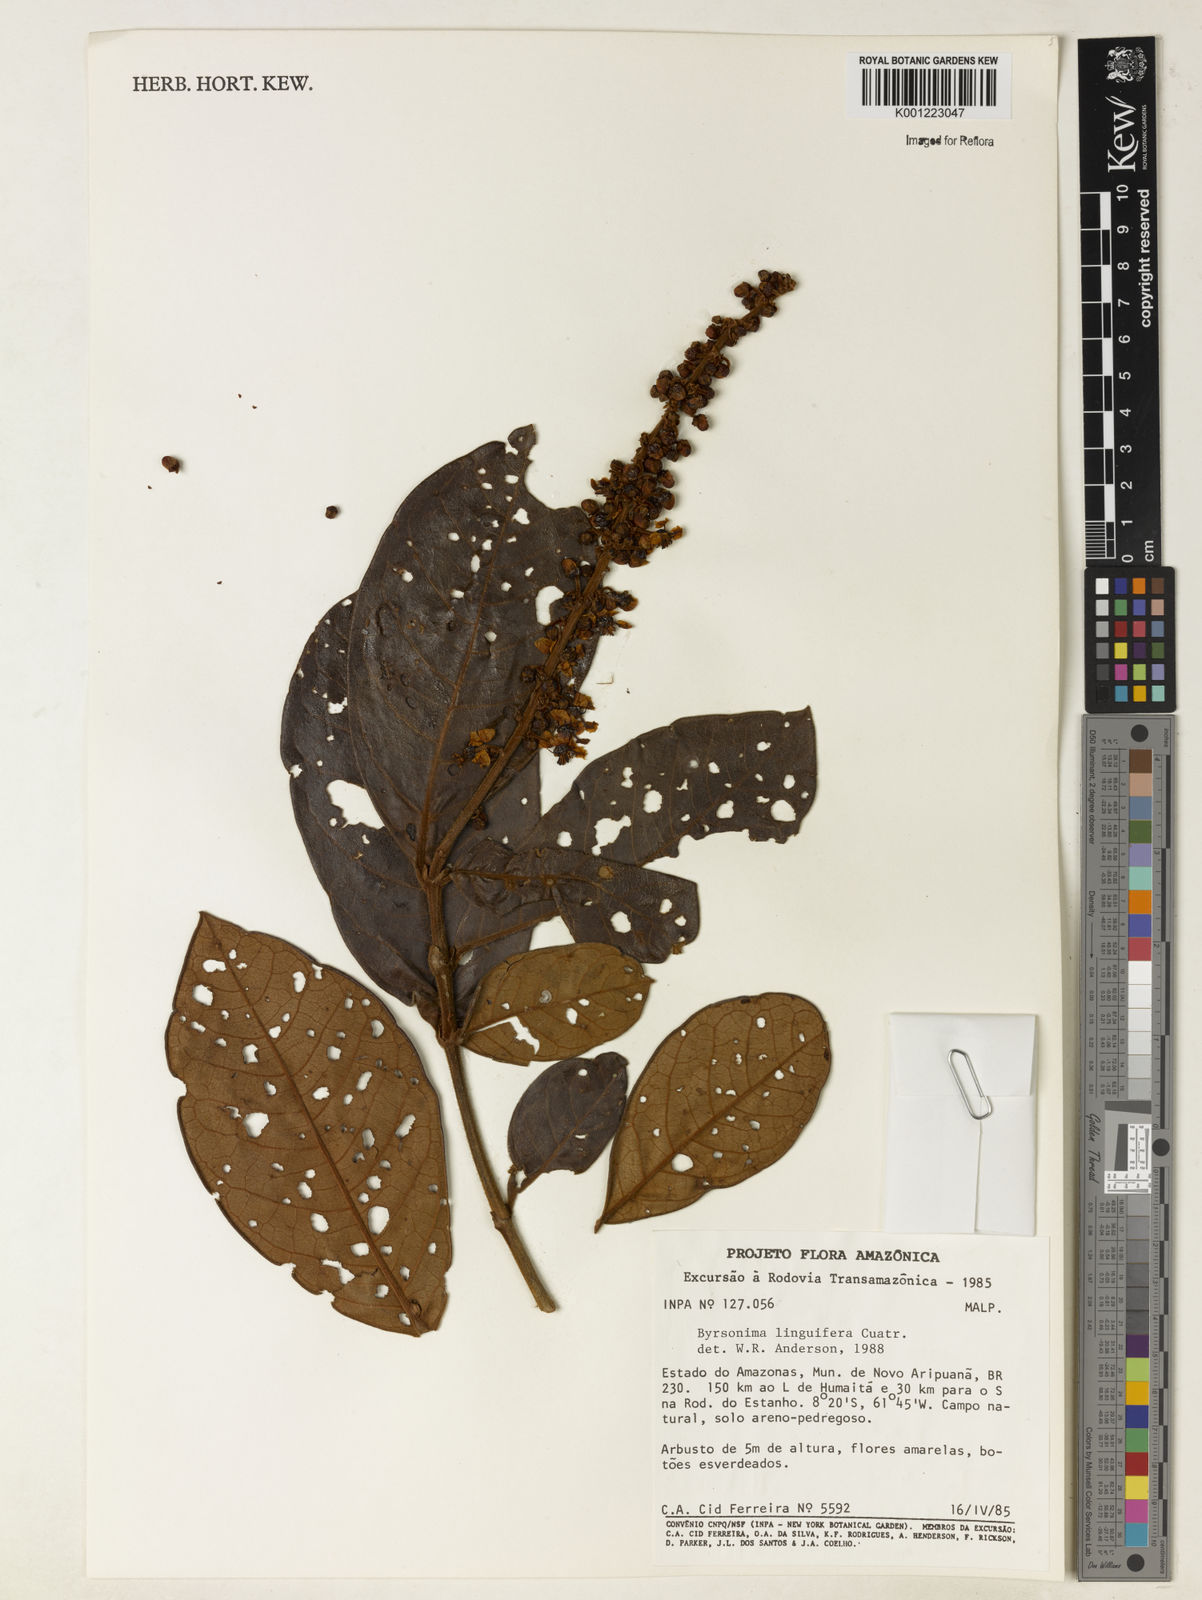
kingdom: Plantae
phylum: Tracheophyta
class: Magnoliopsida
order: Malpighiales
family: Malpighiaceae
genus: Byrsonima
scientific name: Byrsonima linguifera
